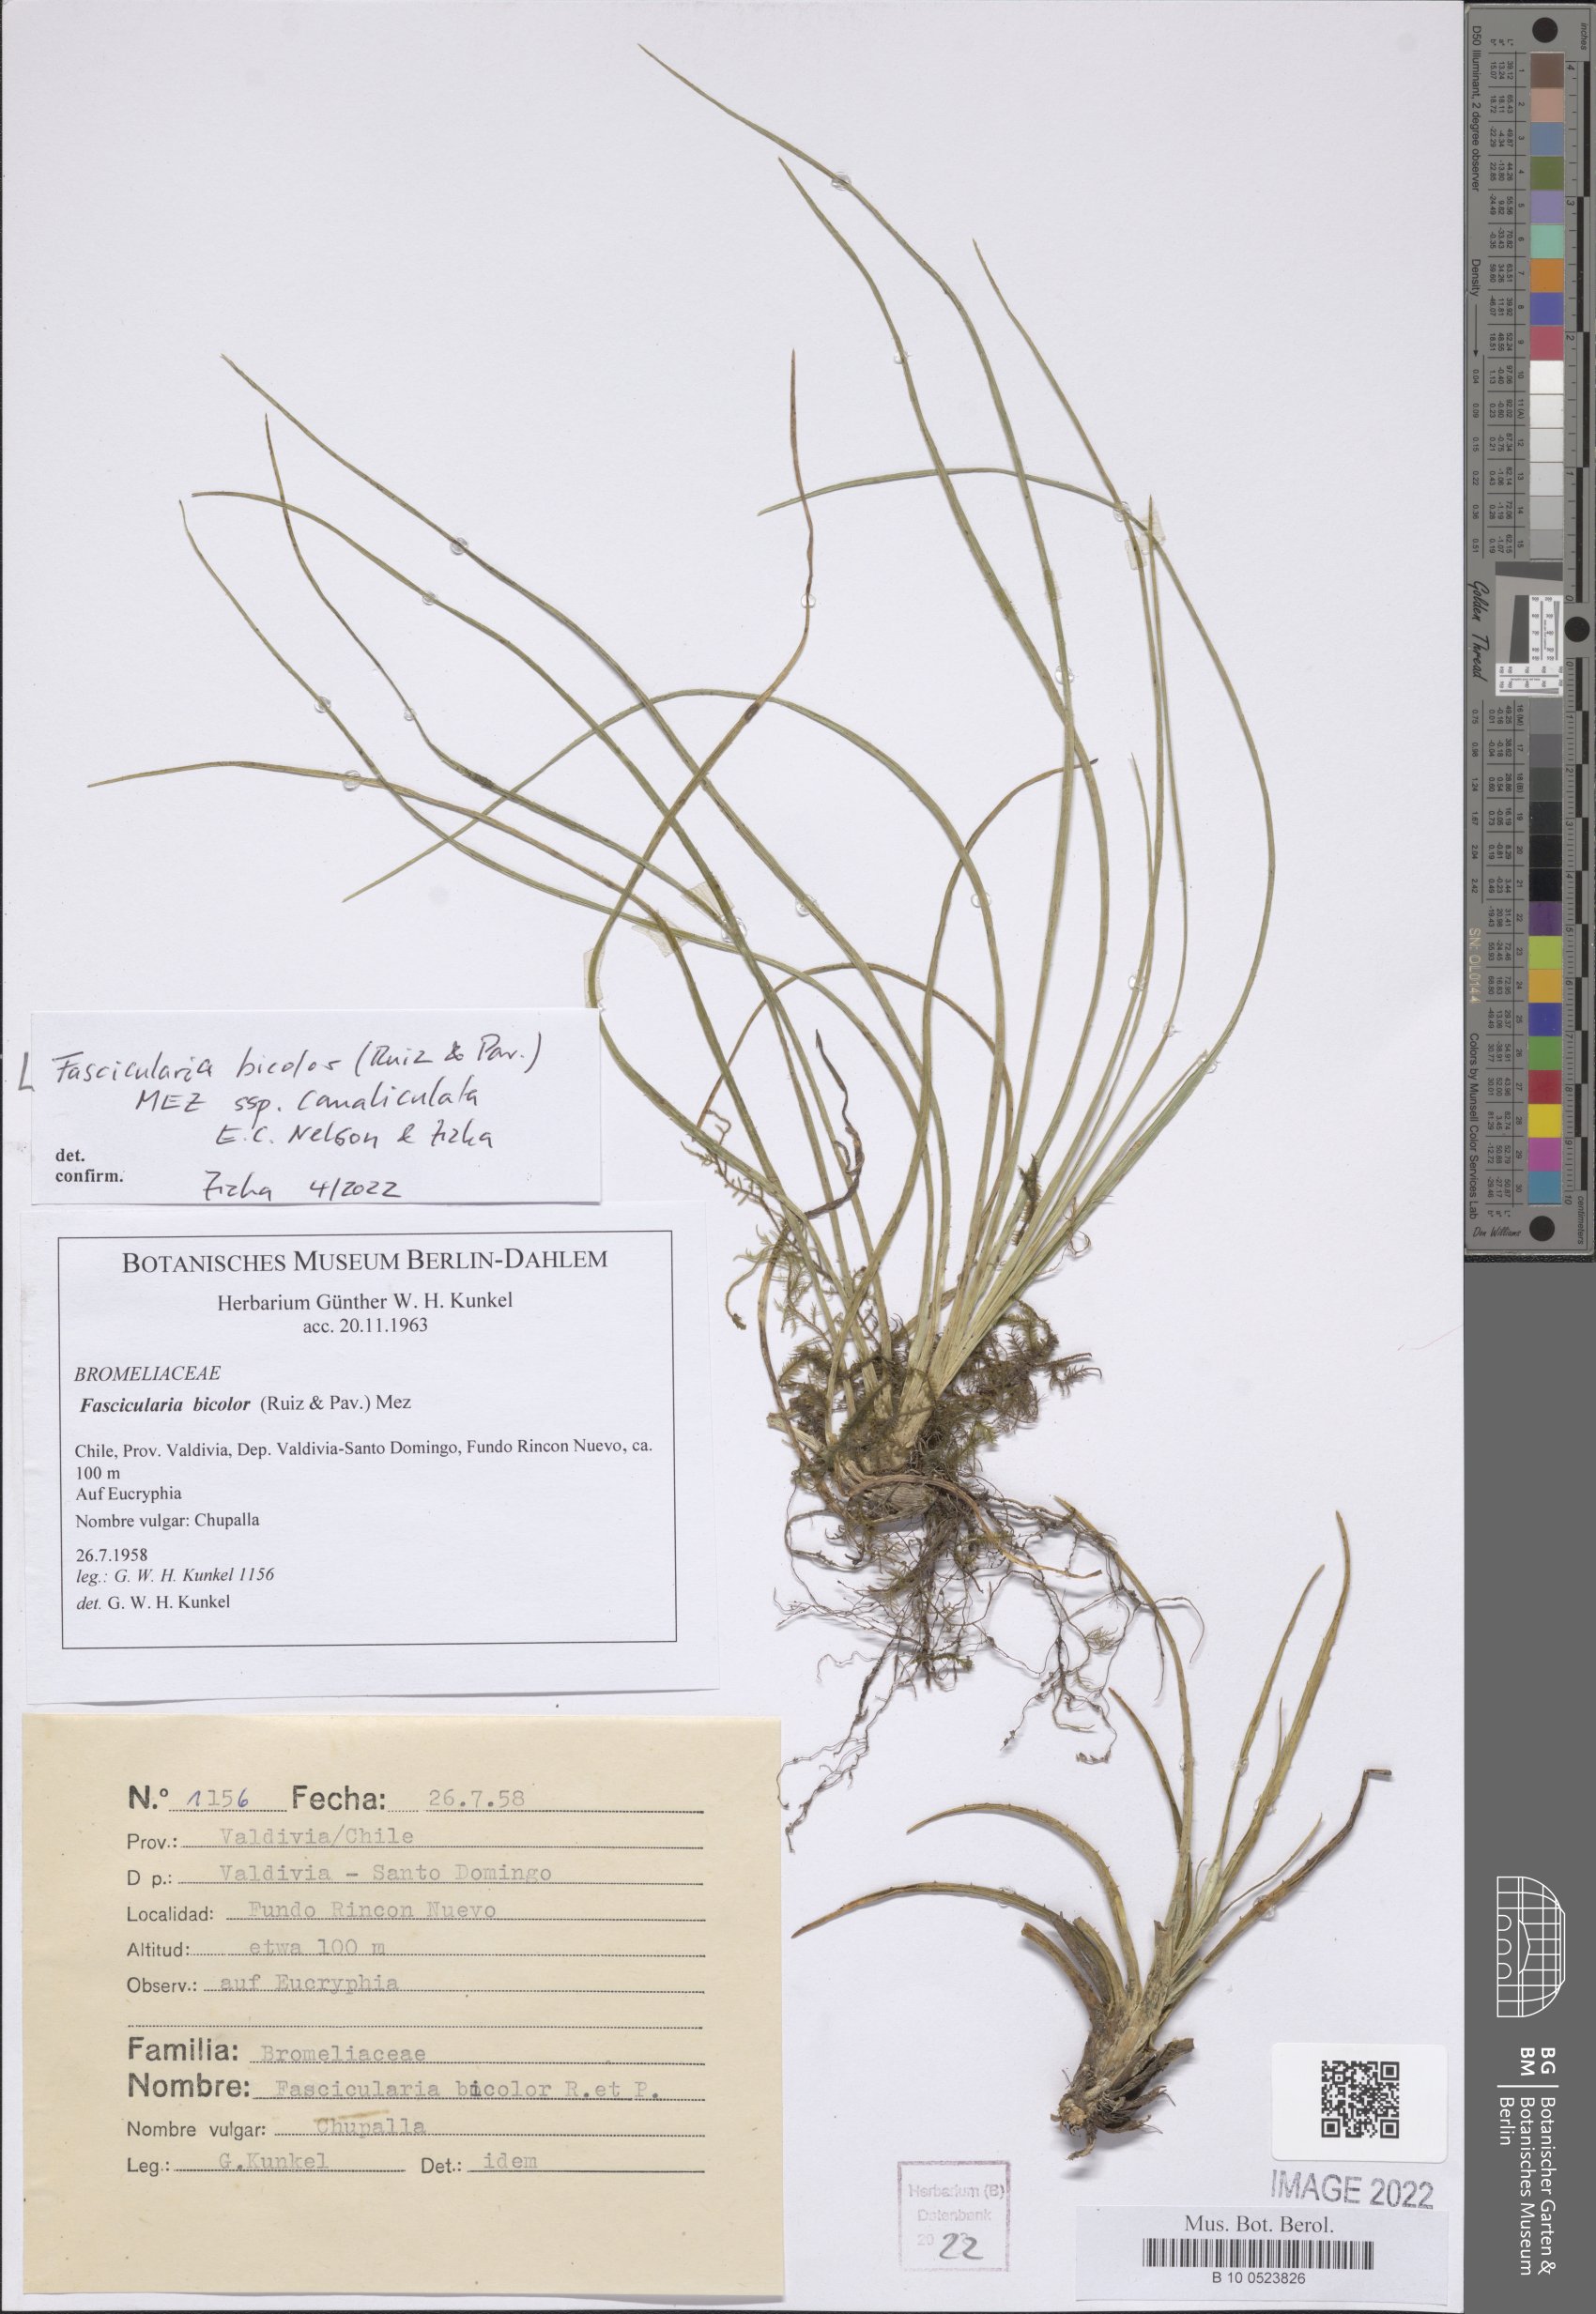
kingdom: Plantae
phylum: Tracheophyta
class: Liliopsida
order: Poales
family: Bromeliaceae
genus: Fascicularia
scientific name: Fascicularia bicolor
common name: Rhodostachys
